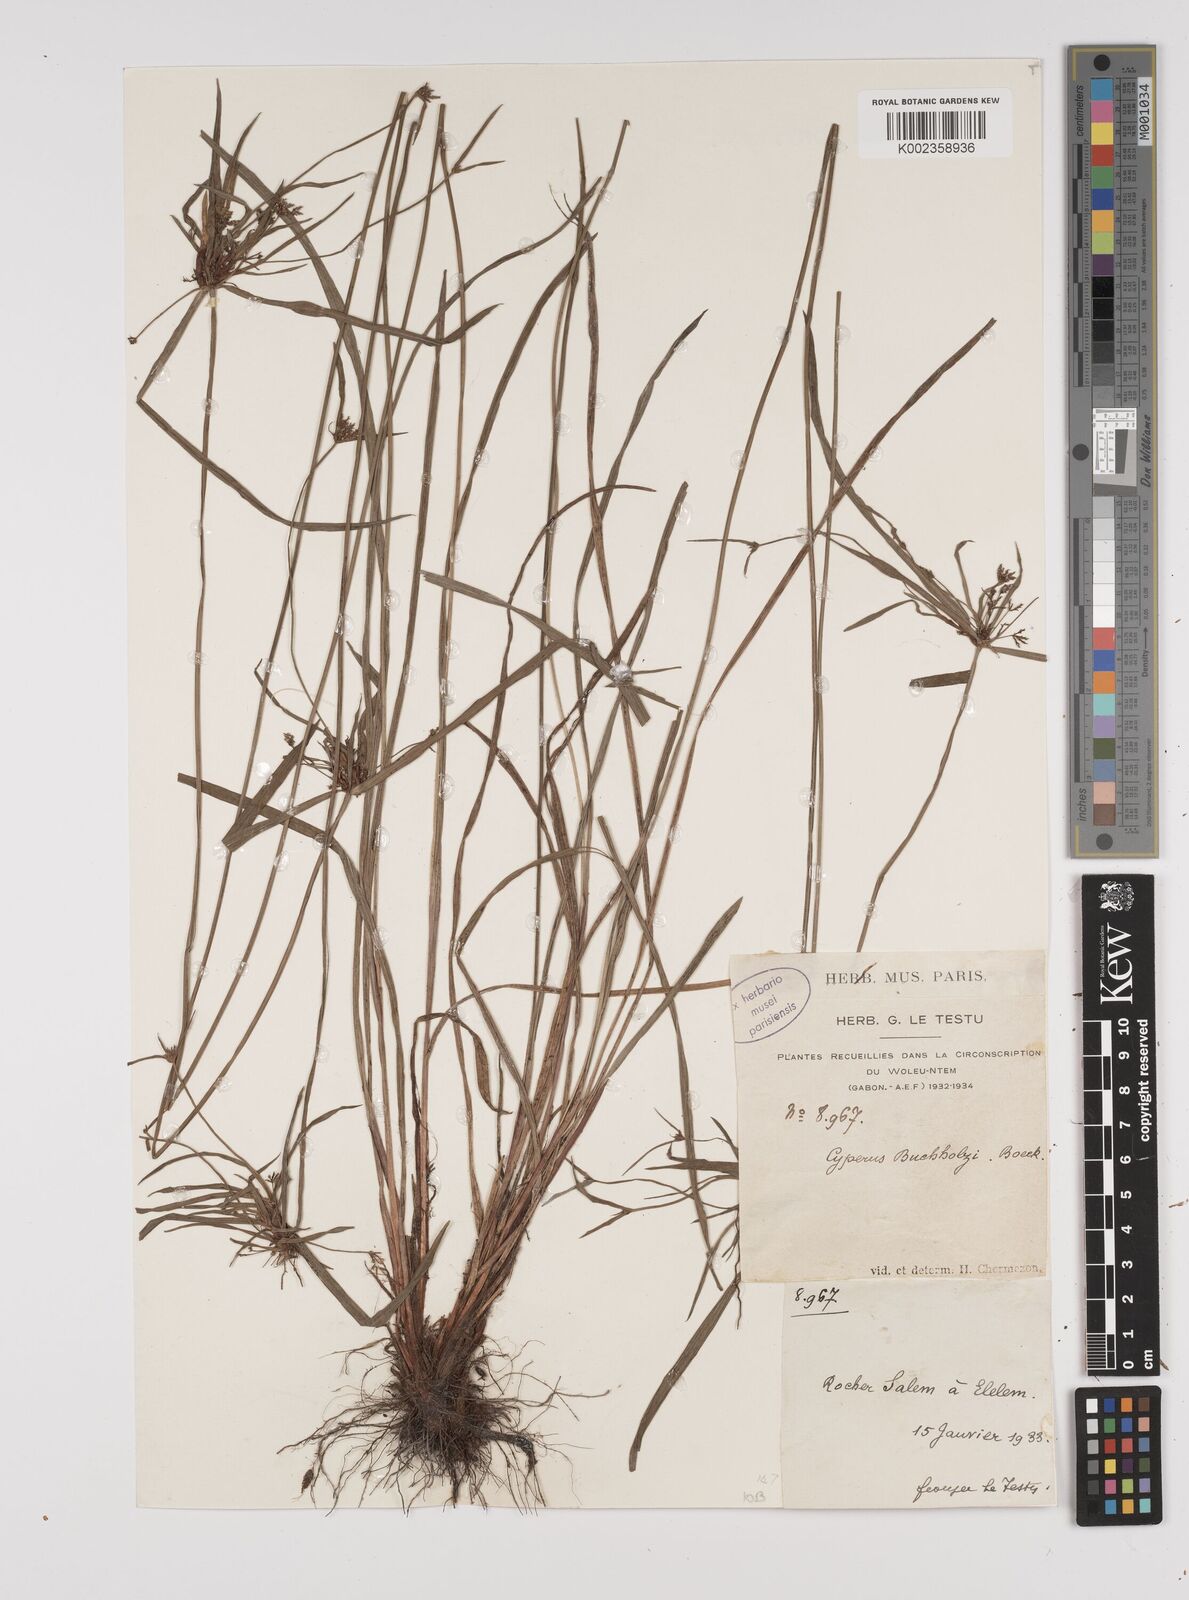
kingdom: Plantae
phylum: Tracheophyta
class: Liliopsida
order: Poales
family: Cyperaceae
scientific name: Cyperaceae
